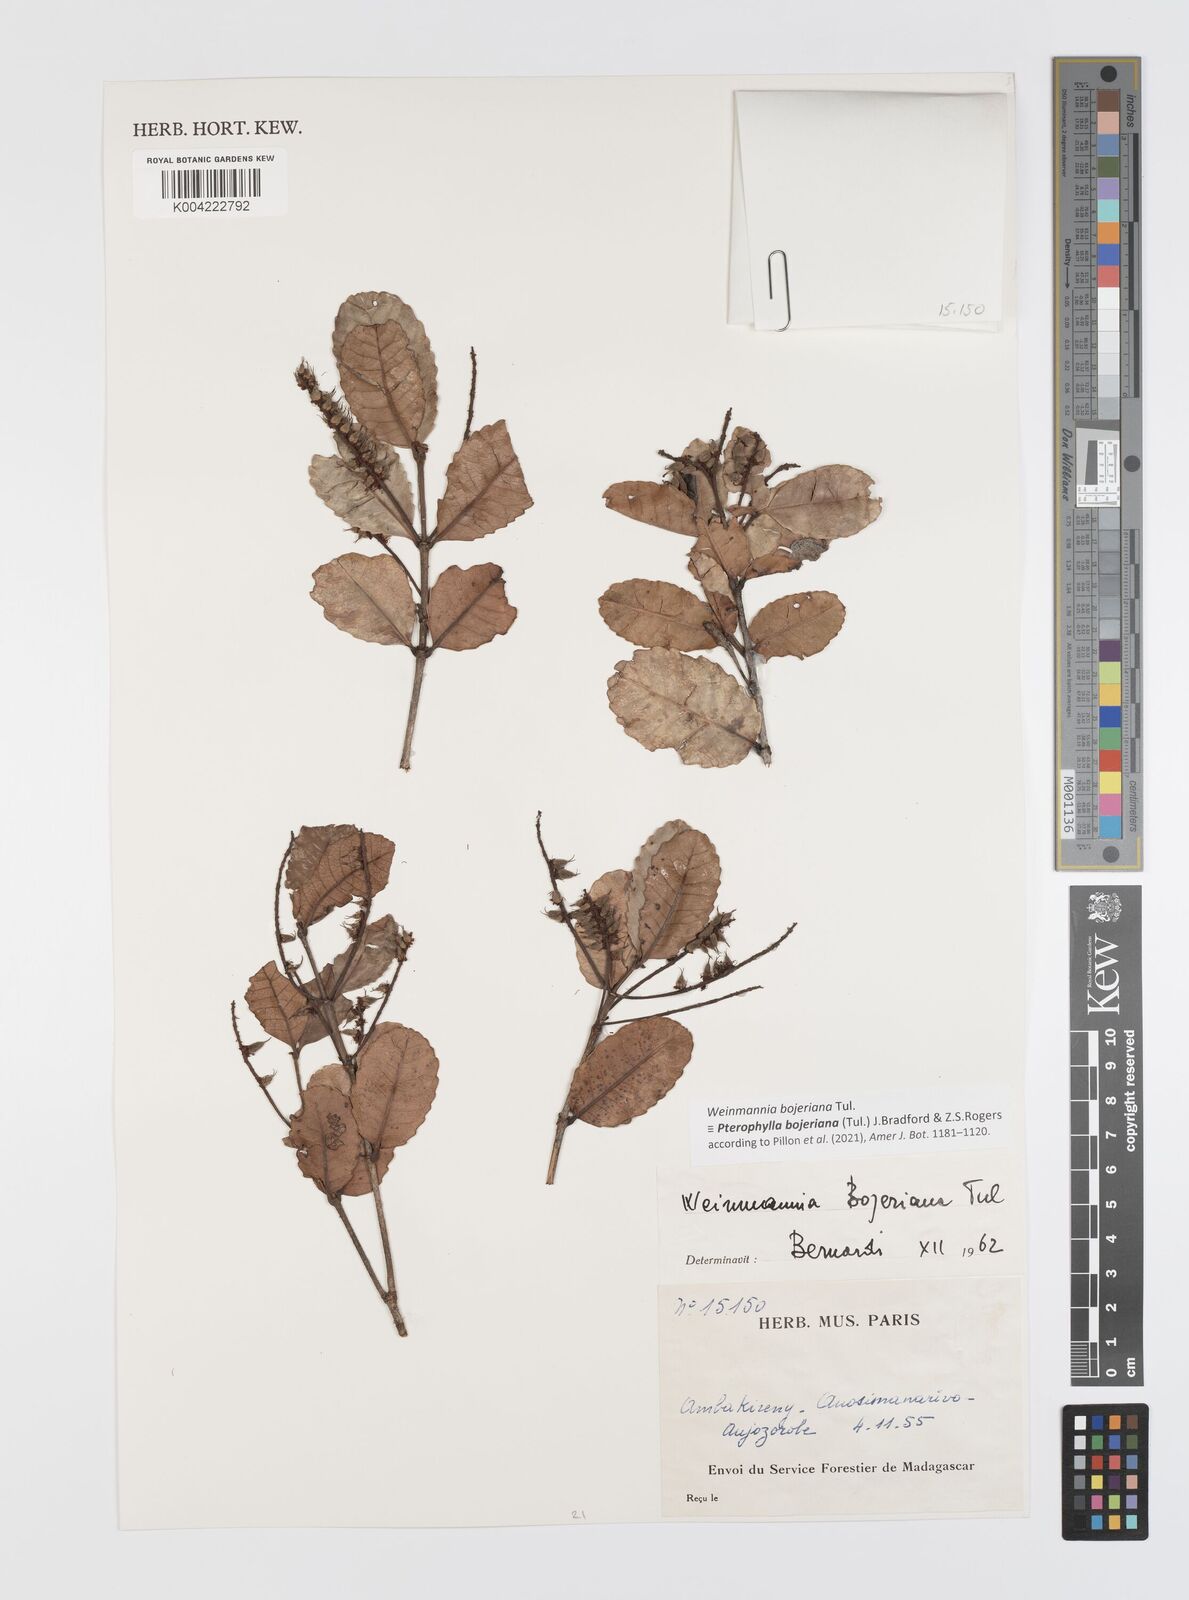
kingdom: Plantae
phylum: Tracheophyta
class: Magnoliopsida
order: Oxalidales
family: Cunoniaceae
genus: Pterophylla
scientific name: Pterophylla
